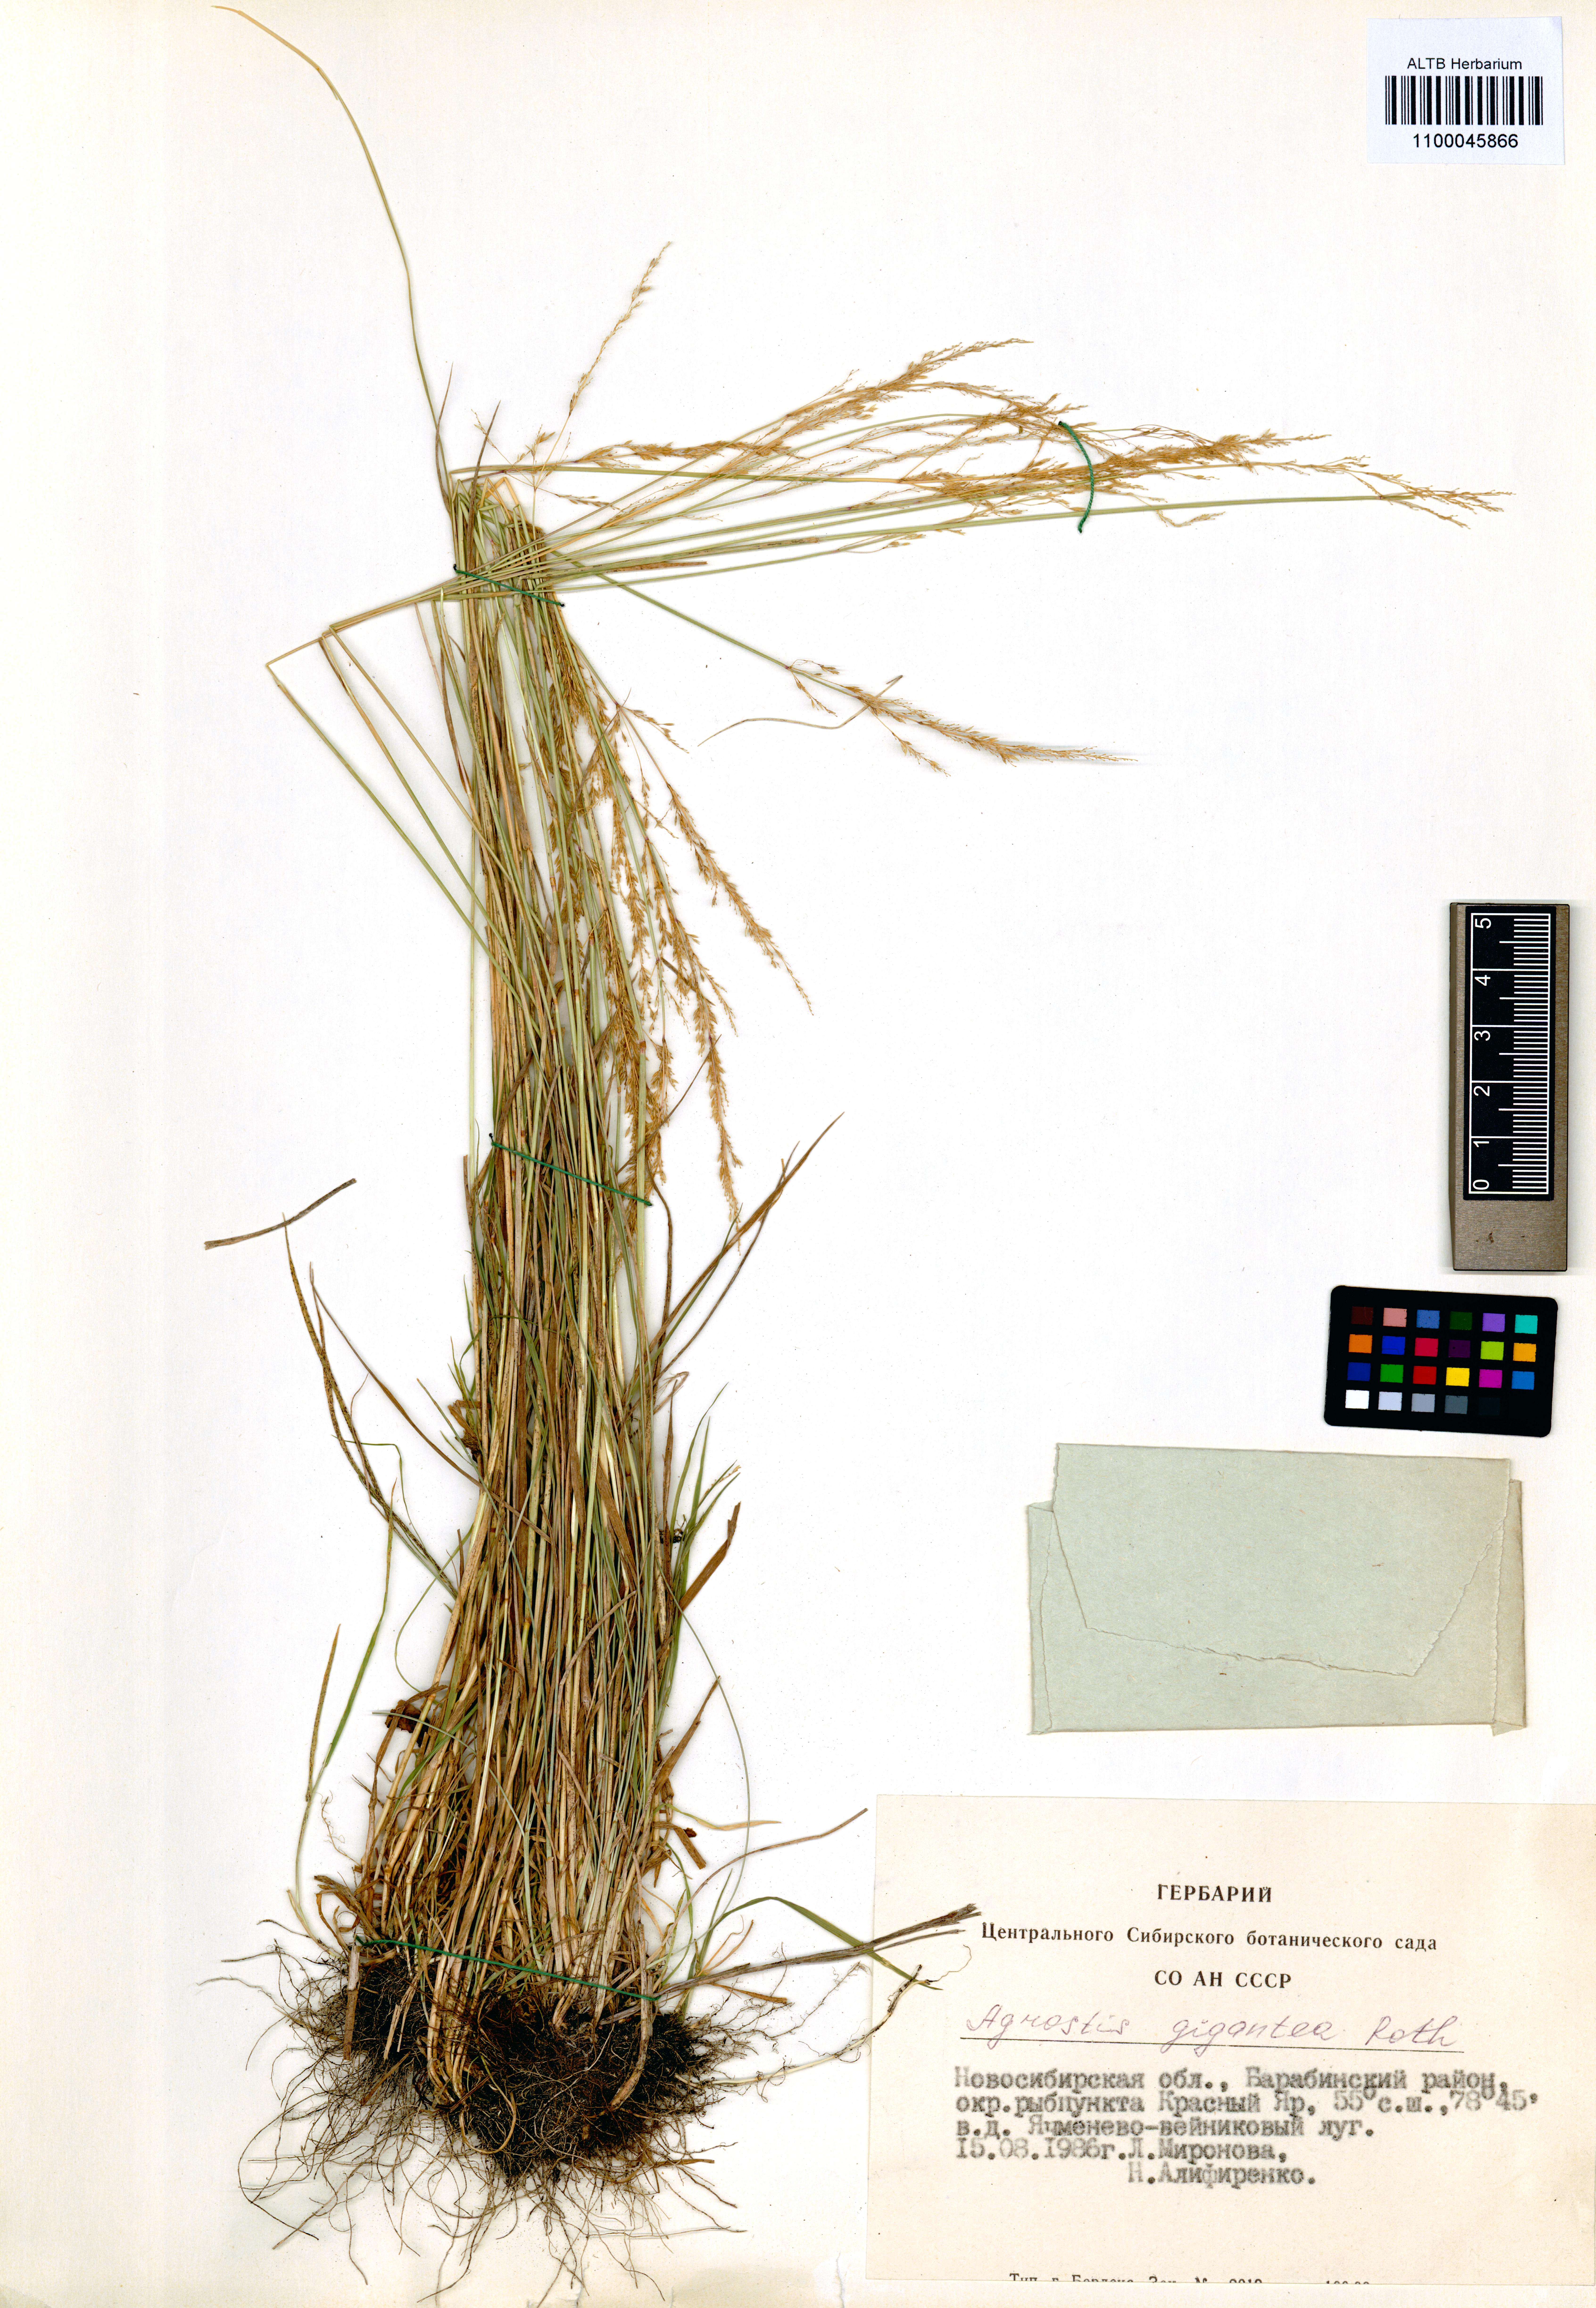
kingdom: Plantae
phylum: Tracheophyta
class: Liliopsida
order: Poales
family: Poaceae
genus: Agrostis
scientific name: Agrostis gigantea
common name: Black bent
